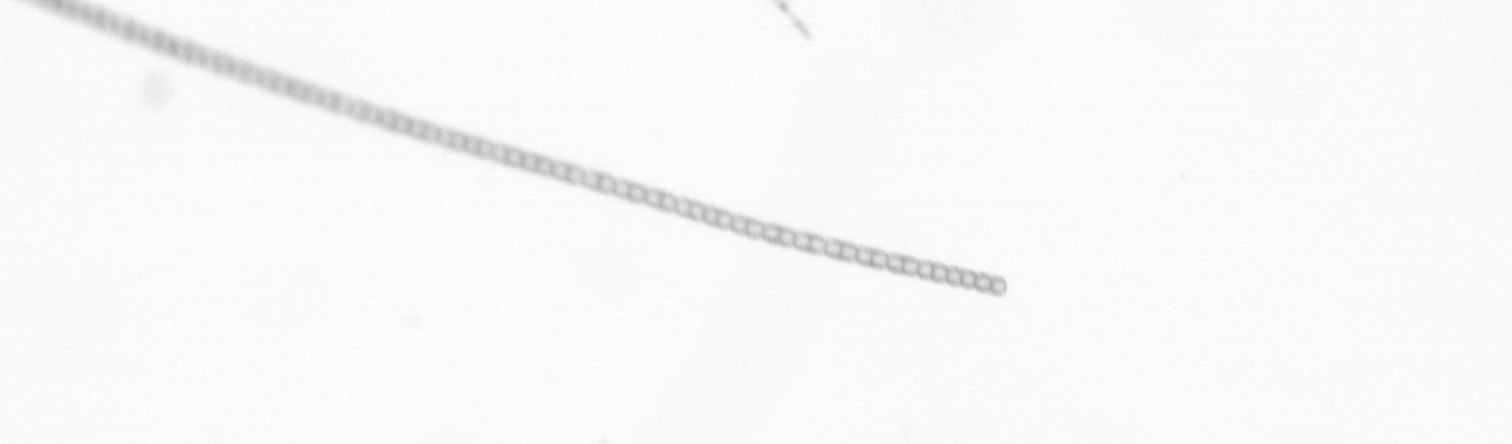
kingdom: Chromista
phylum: Ochrophyta
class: Bacillariophyceae
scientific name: Bacillariophyceae
